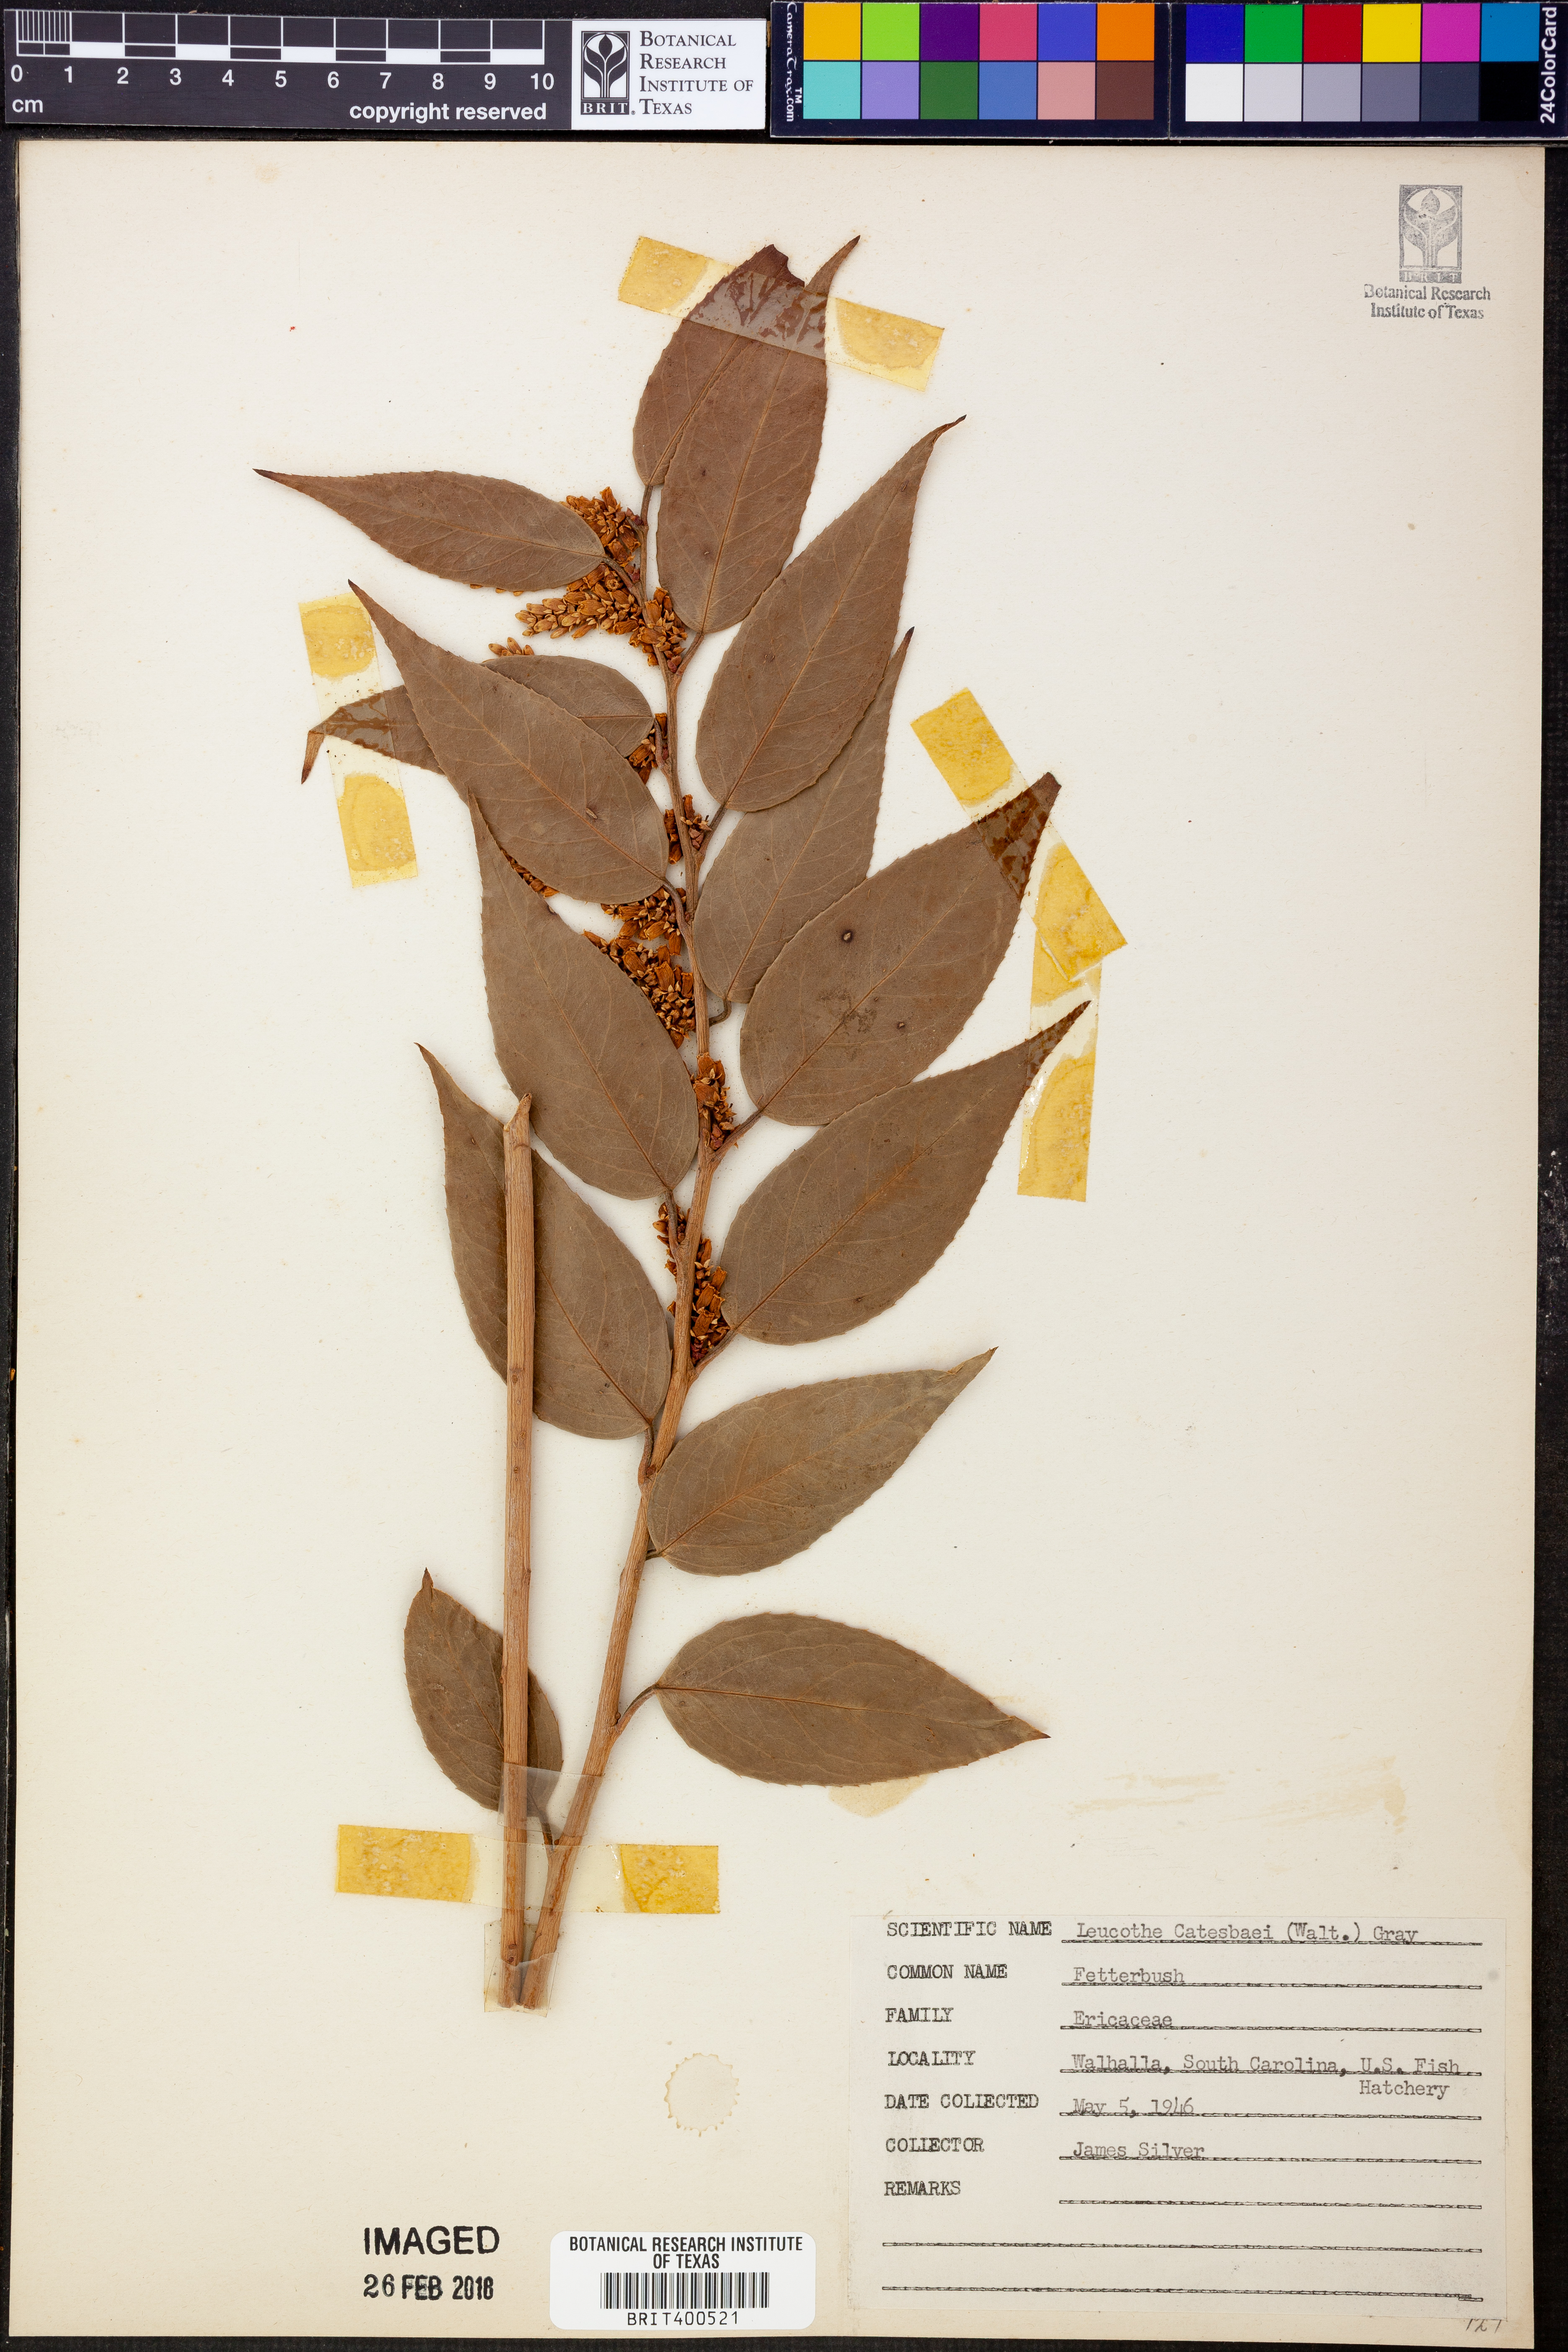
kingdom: Plantae
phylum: Tracheophyta
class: Magnoliopsida
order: Ericales
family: Ericaceae
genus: Leucothoe
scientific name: Leucothoe fontanesiana
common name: Fetterbush
